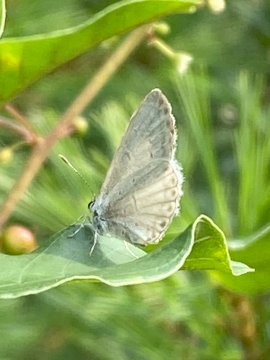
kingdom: Animalia
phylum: Arthropoda
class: Insecta
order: Lepidoptera
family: Lycaenidae
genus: Celastrina
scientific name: Celastrina
